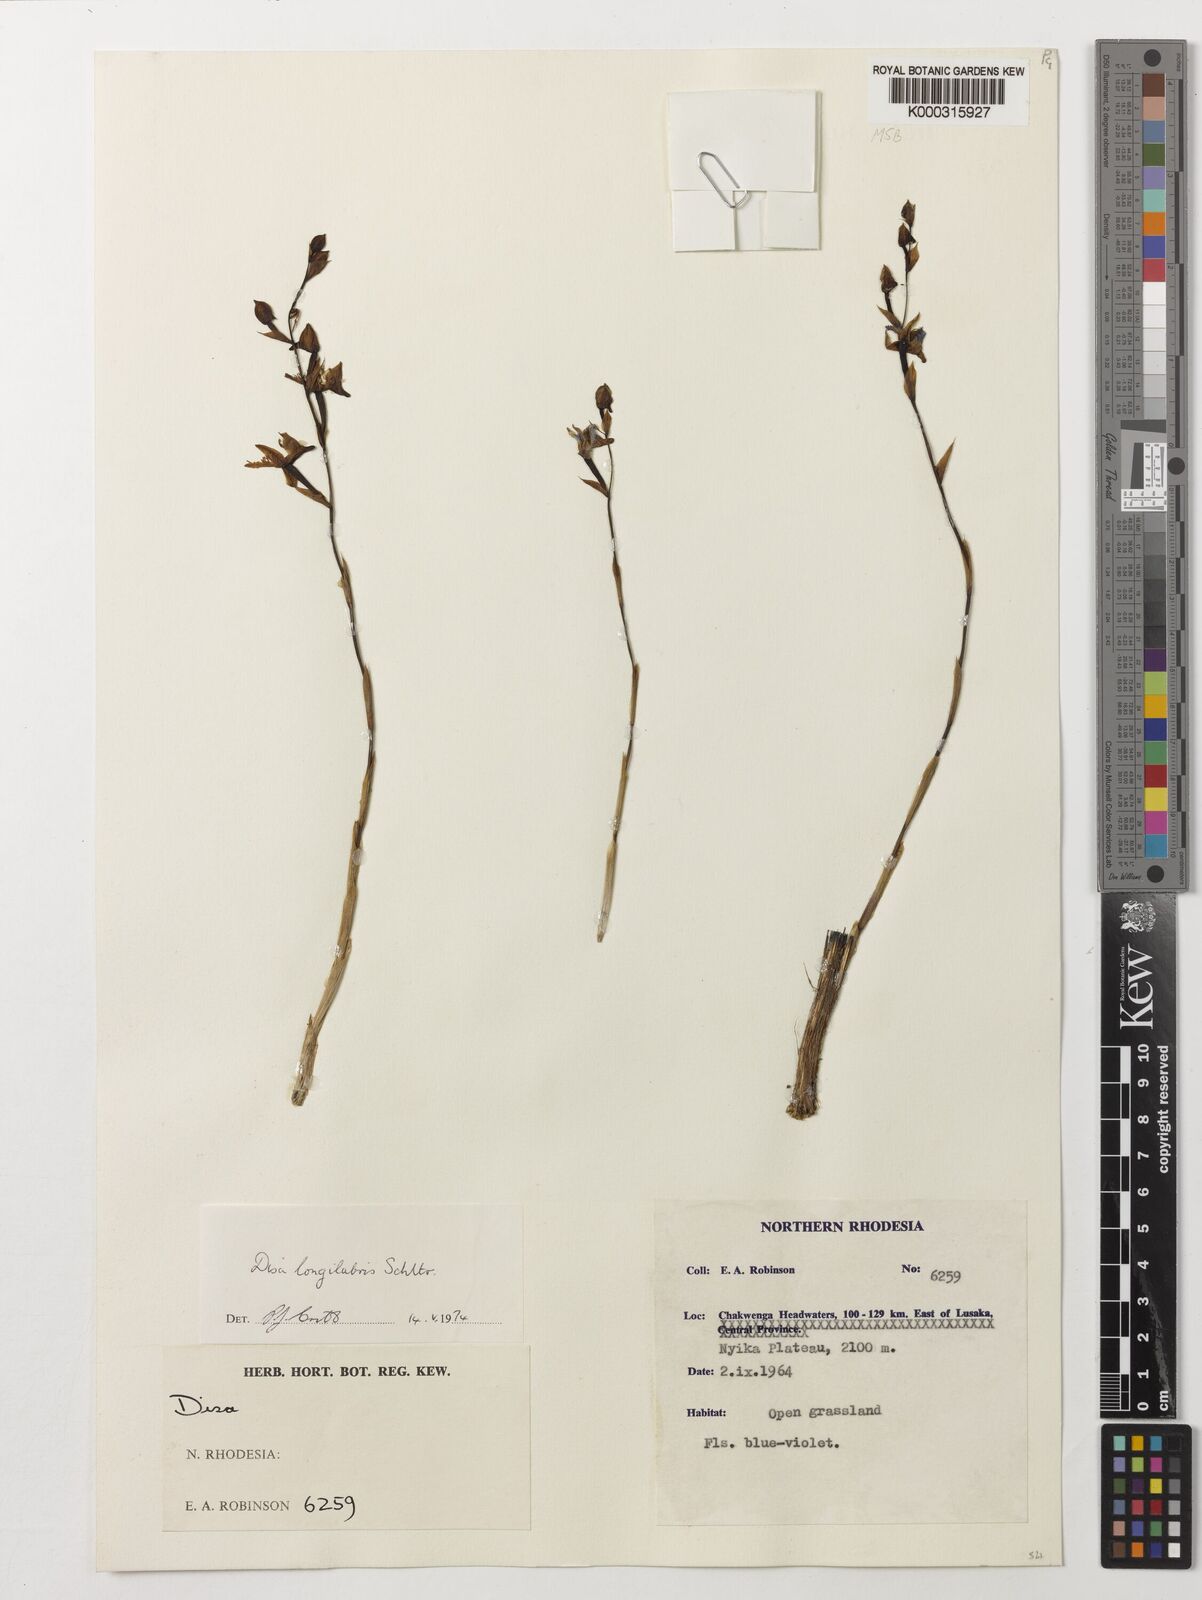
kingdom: Plantae
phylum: Tracheophyta
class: Liliopsida
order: Asparagales
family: Orchidaceae
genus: Disa
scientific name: Disa praecox
